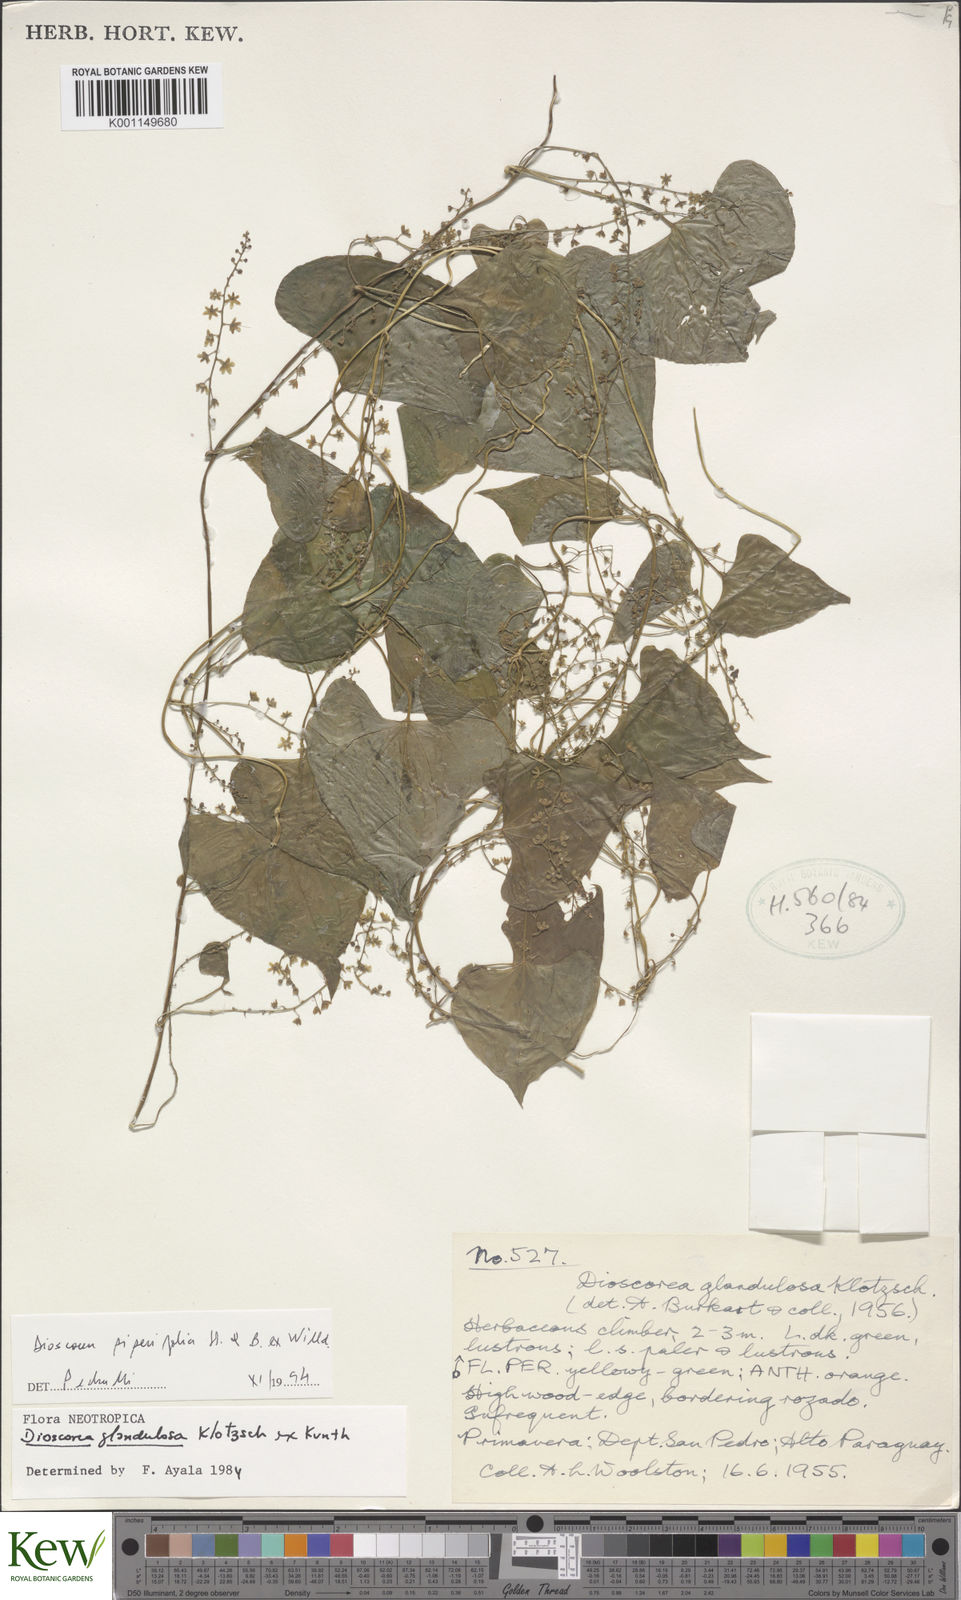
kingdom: Plantae
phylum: Tracheophyta
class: Liliopsida
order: Dioscoreales
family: Dioscoreaceae
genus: Dioscorea
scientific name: Dioscorea glandulosa
